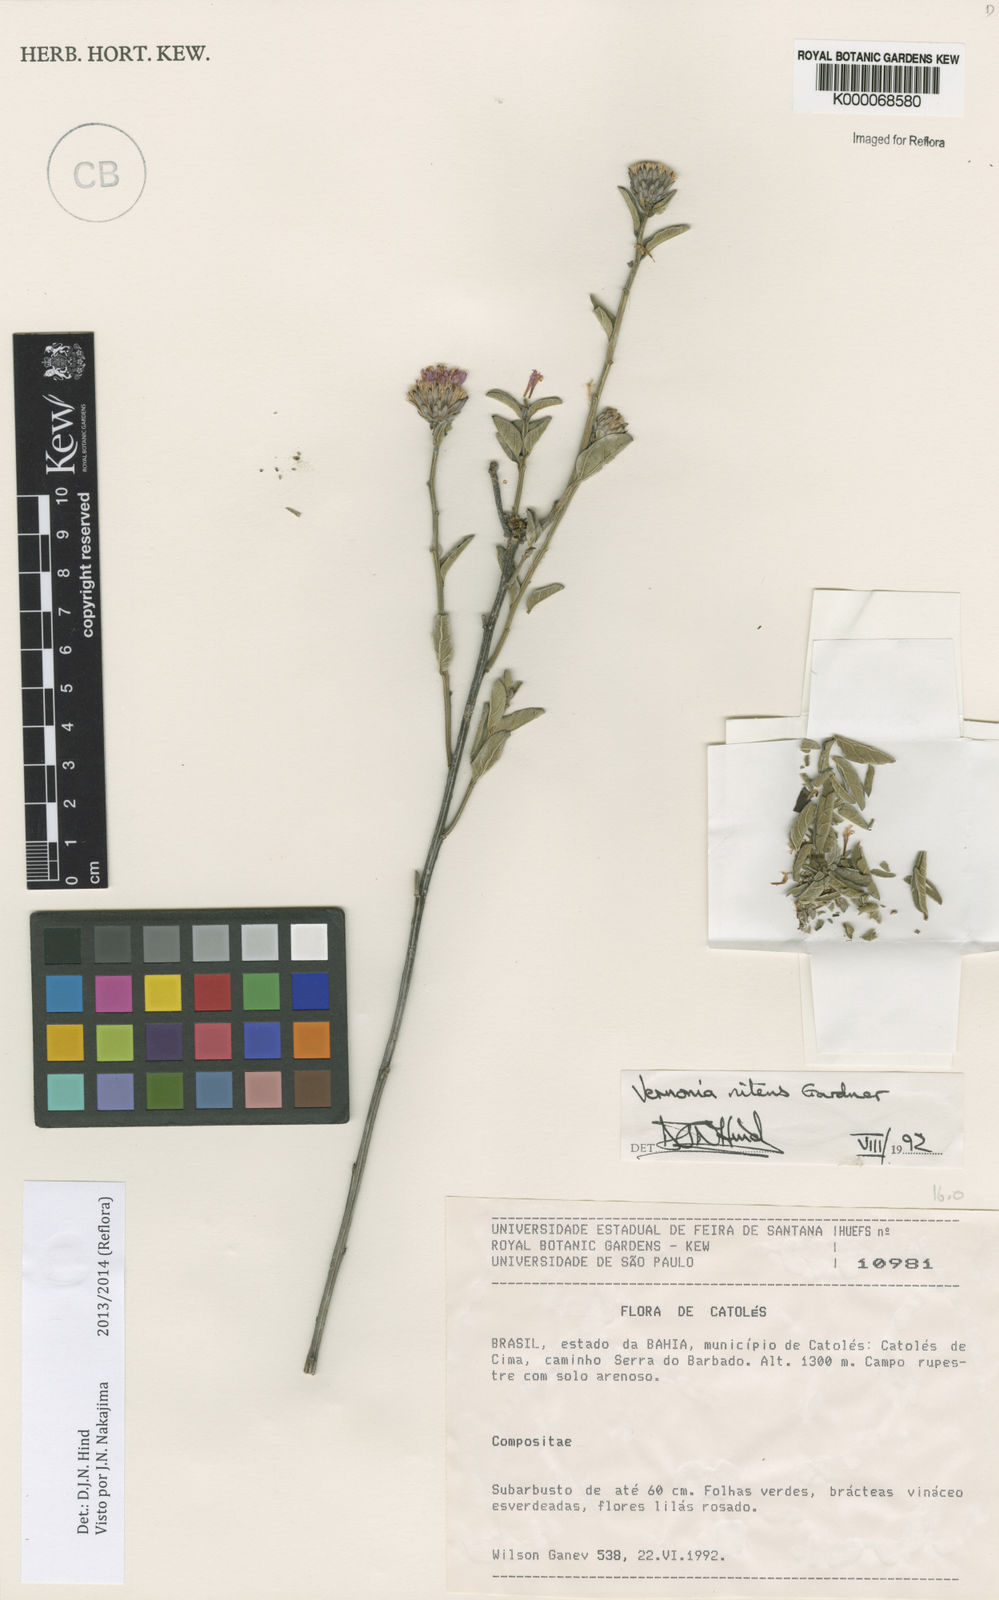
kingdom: Plantae
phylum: Tracheophyta
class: Magnoliopsida
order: Asterales
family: Asteraceae
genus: Lepidaploa
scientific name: Lepidaploa nitens
